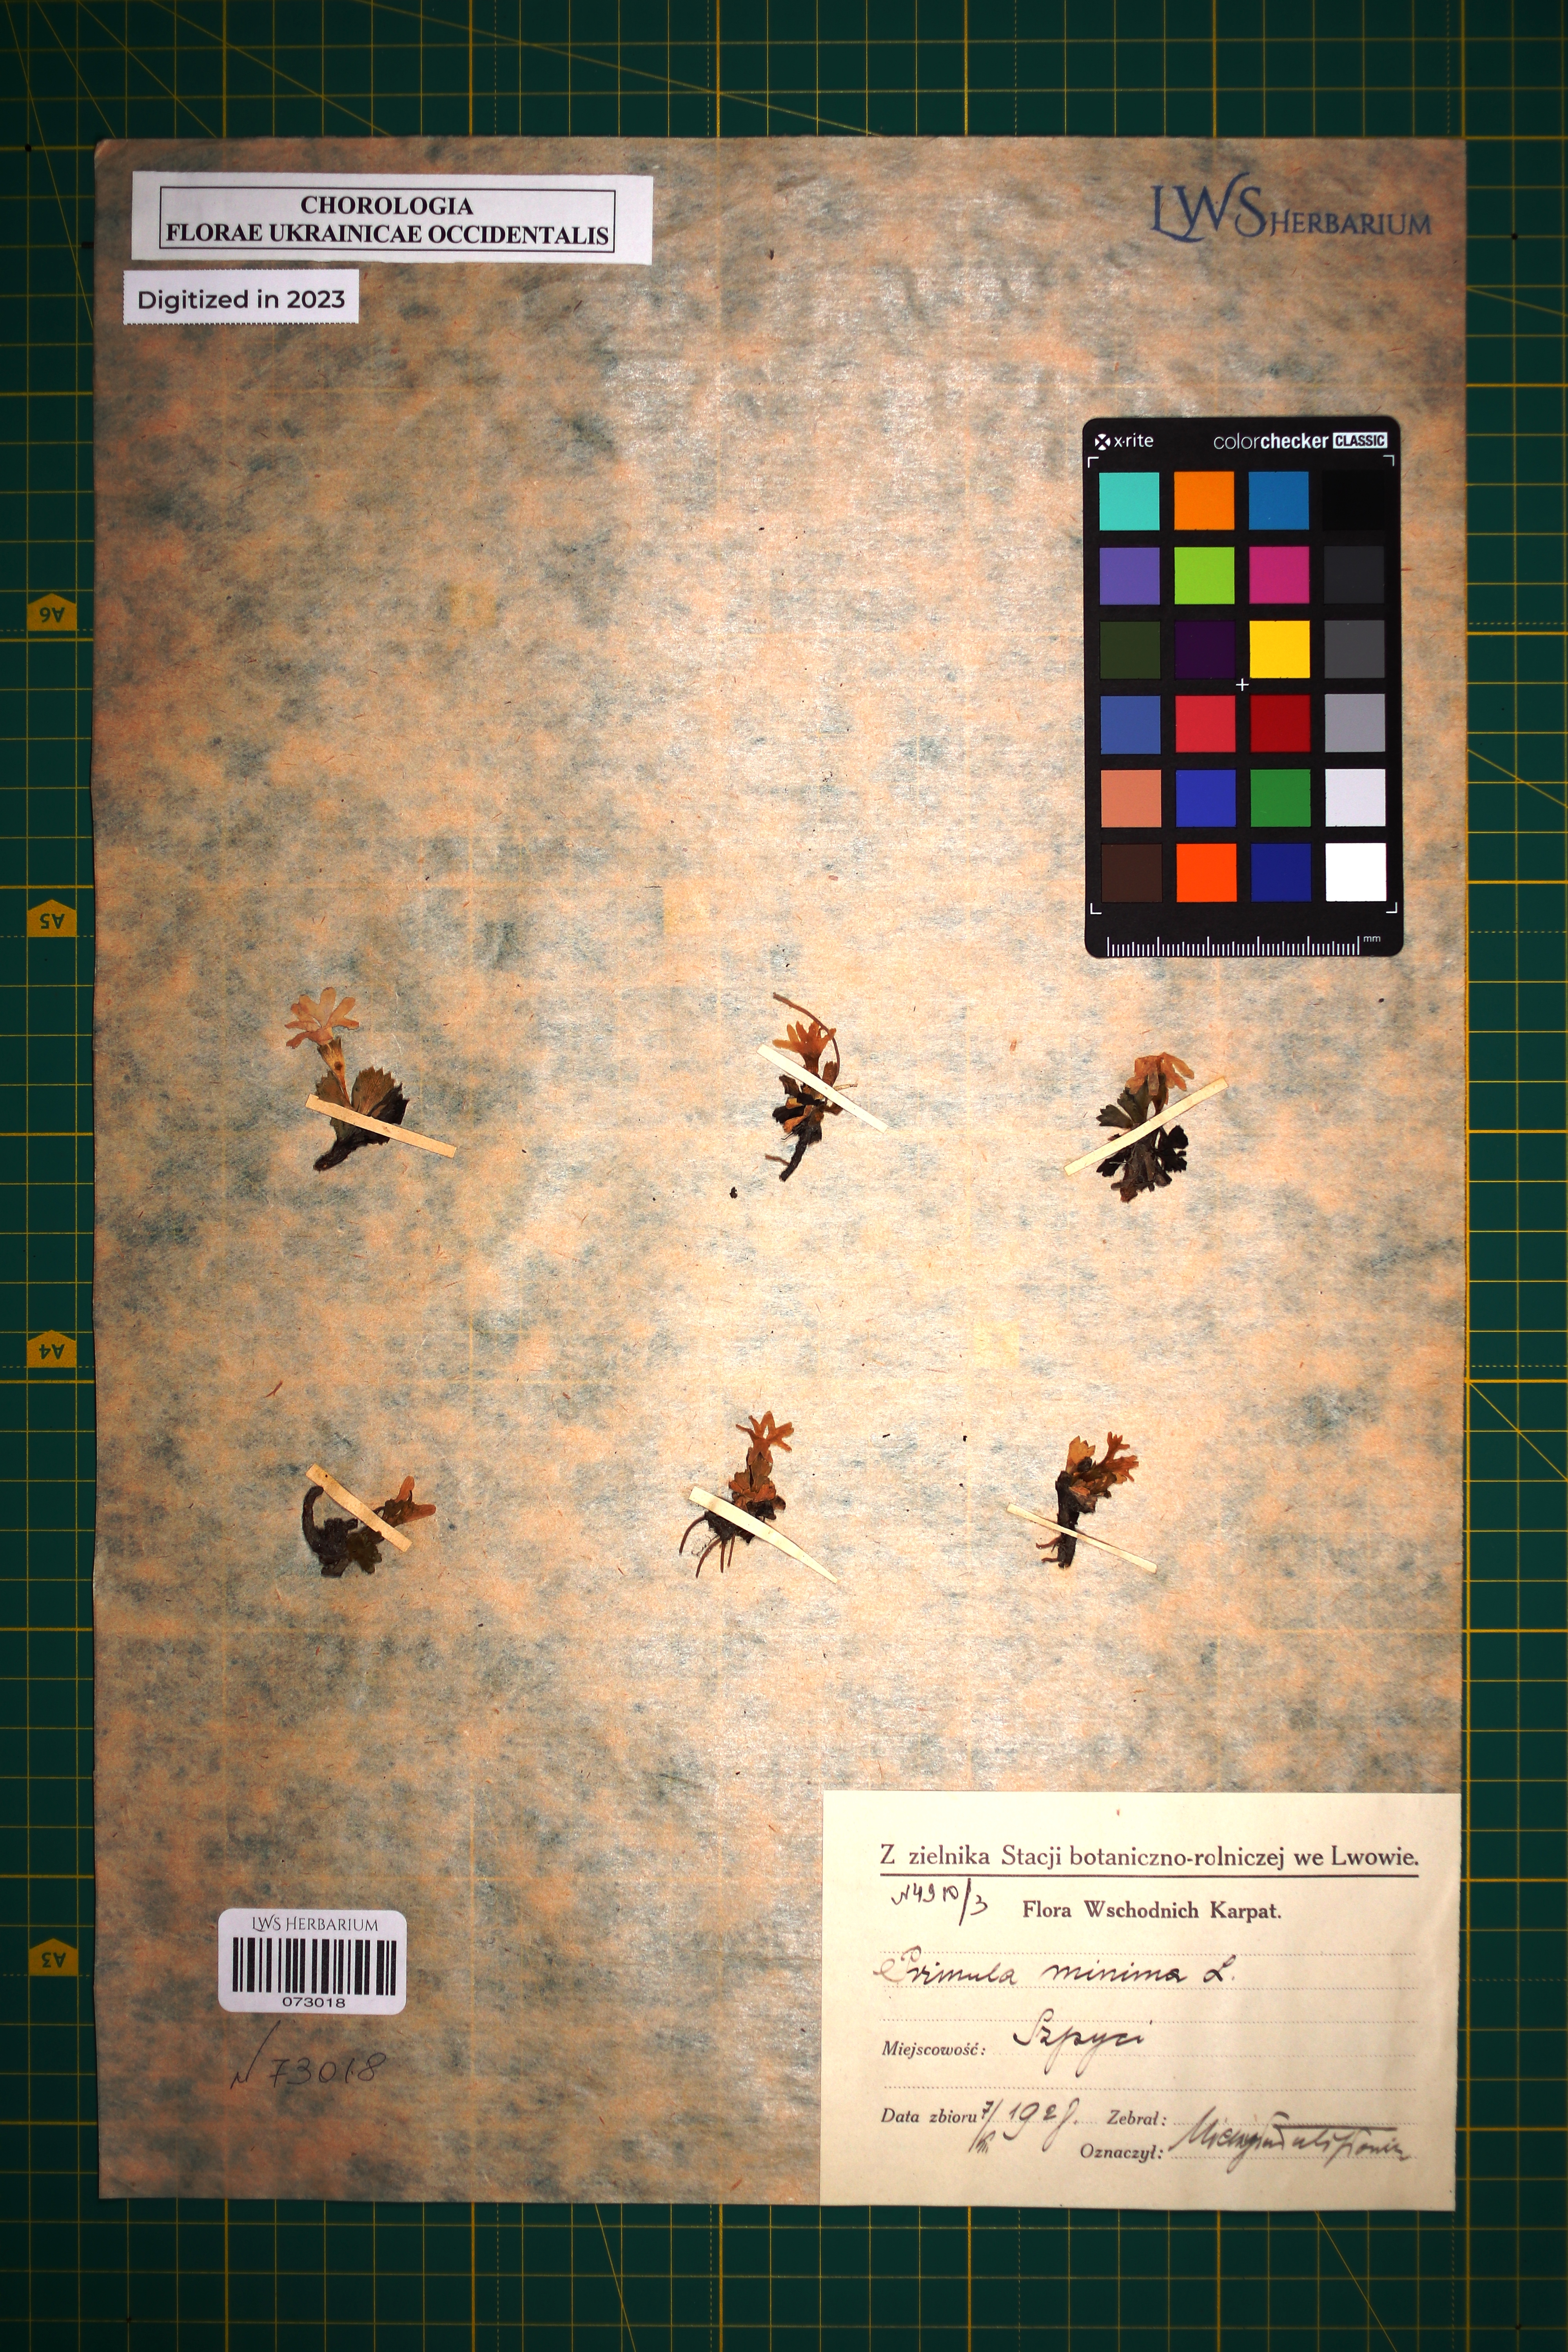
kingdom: Plantae
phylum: Tracheophyta
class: Magnoliopsida
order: Ericales
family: Primulaceae
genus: Primula
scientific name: Primula minima
